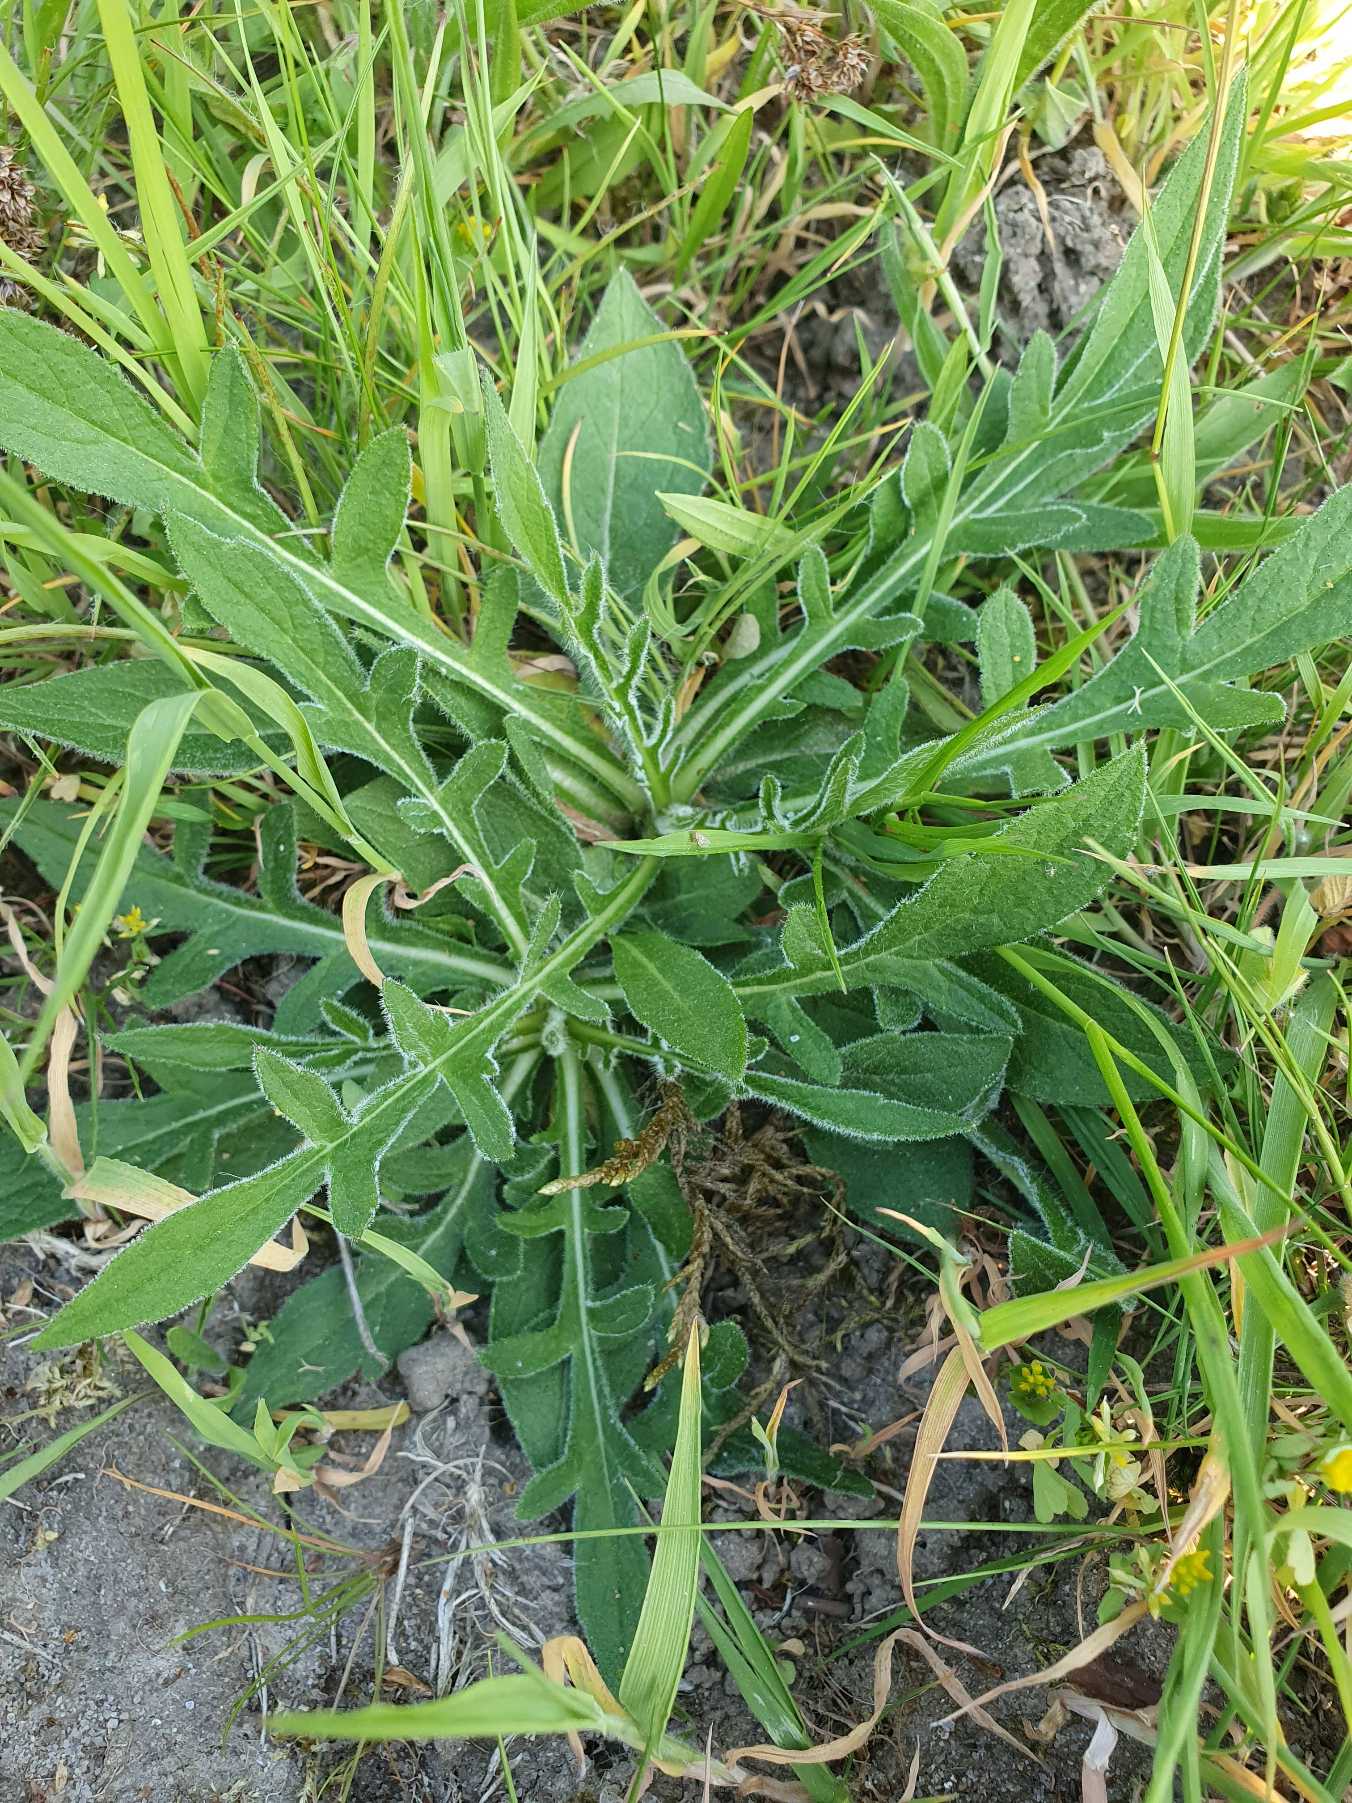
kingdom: Plantae
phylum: Tracheophyta
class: Magnoliopsida
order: Dipsacales
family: Caprifoliaceae
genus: Knautia
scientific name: Knautia arvensis
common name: Blåhat
